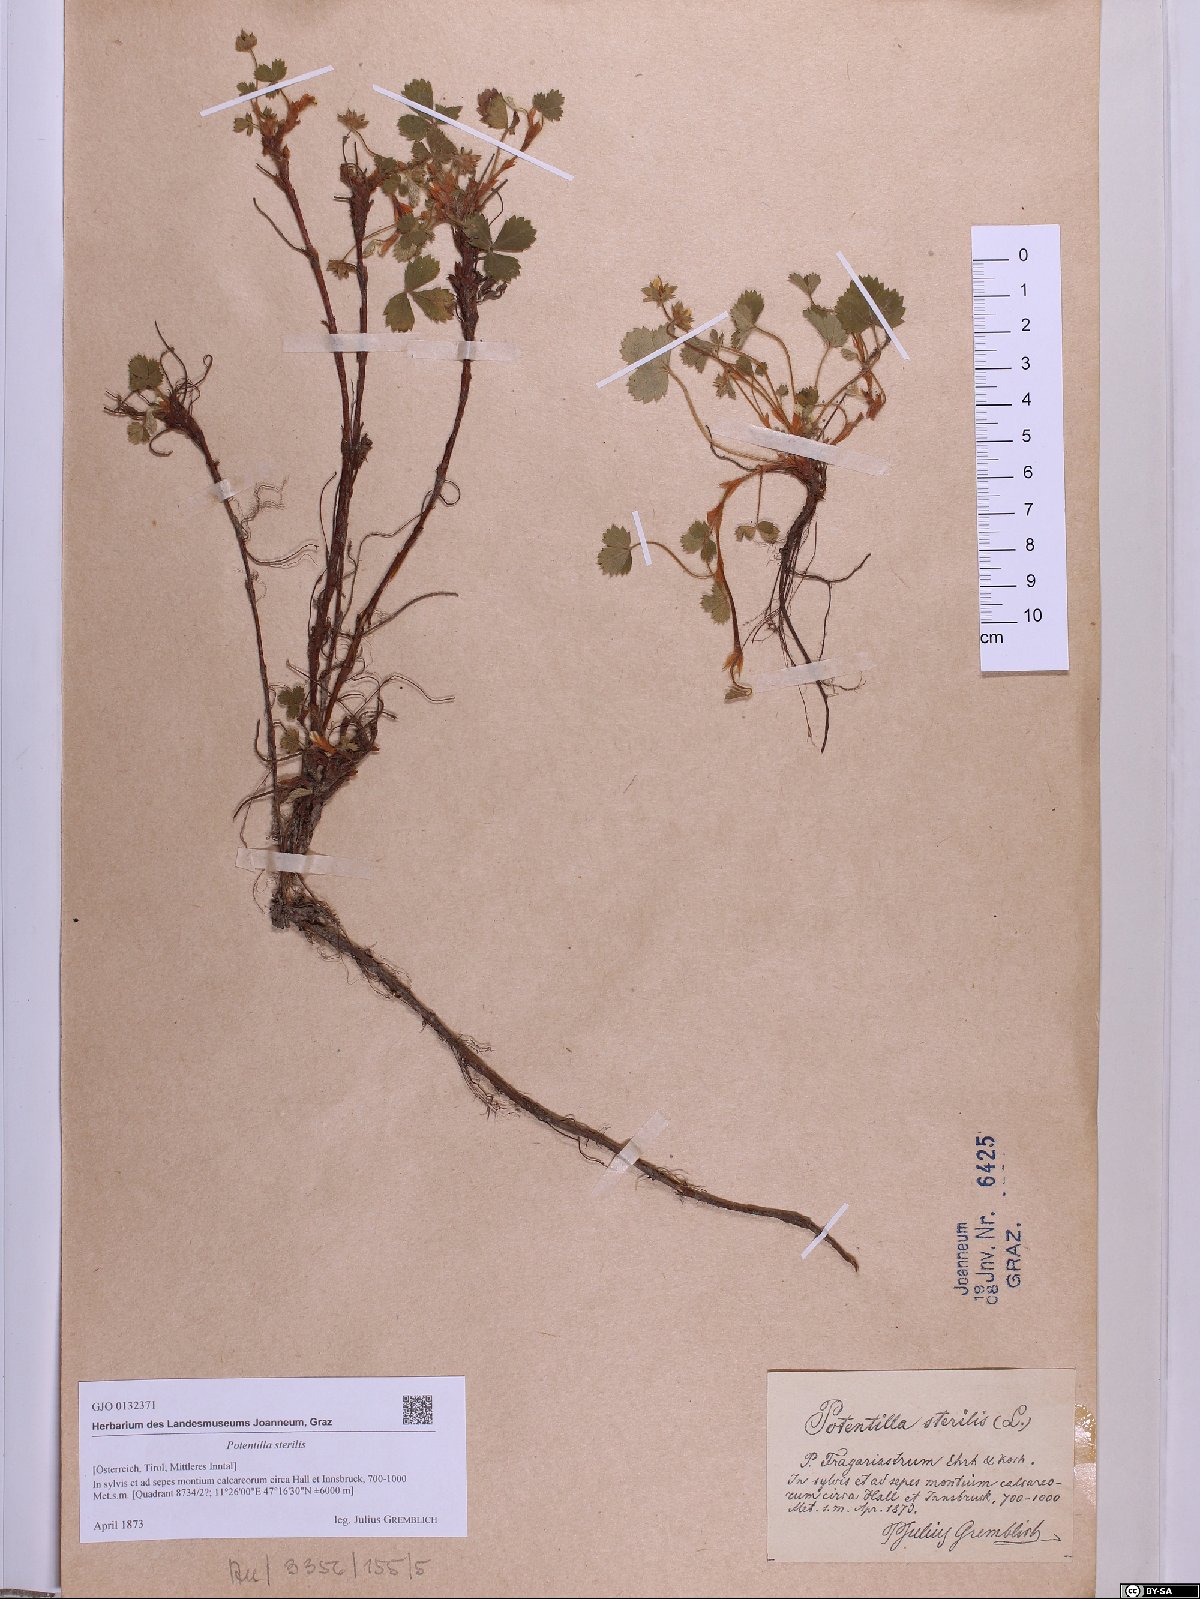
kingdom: Plantae
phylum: Tracheophyta
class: Magnoliopsida
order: Rosales
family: Rosaceae
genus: Potentilla
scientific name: Potentilla sterilis
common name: Barren strawberry
